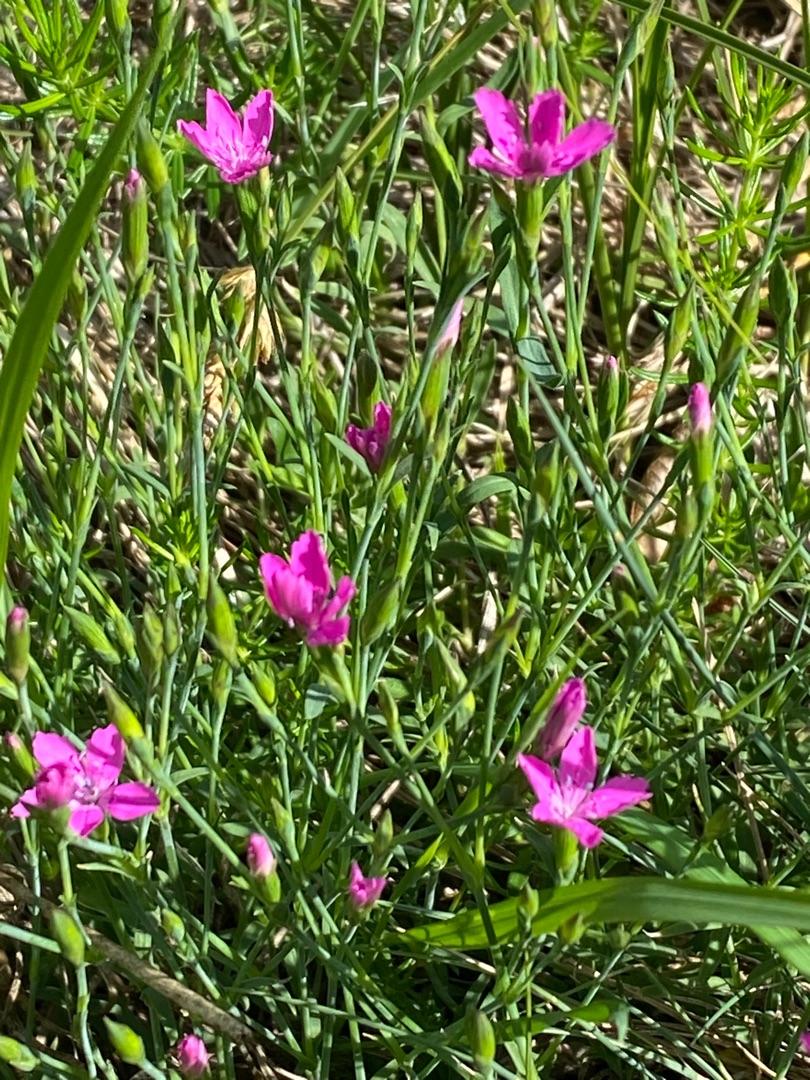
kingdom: Plantae
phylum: Tracheophyta
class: Magnoliopsida
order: Caryophyllales
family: Caryophyllaceae
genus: Dianthus
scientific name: Dianthus deltoides
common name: Bakke-nellike
